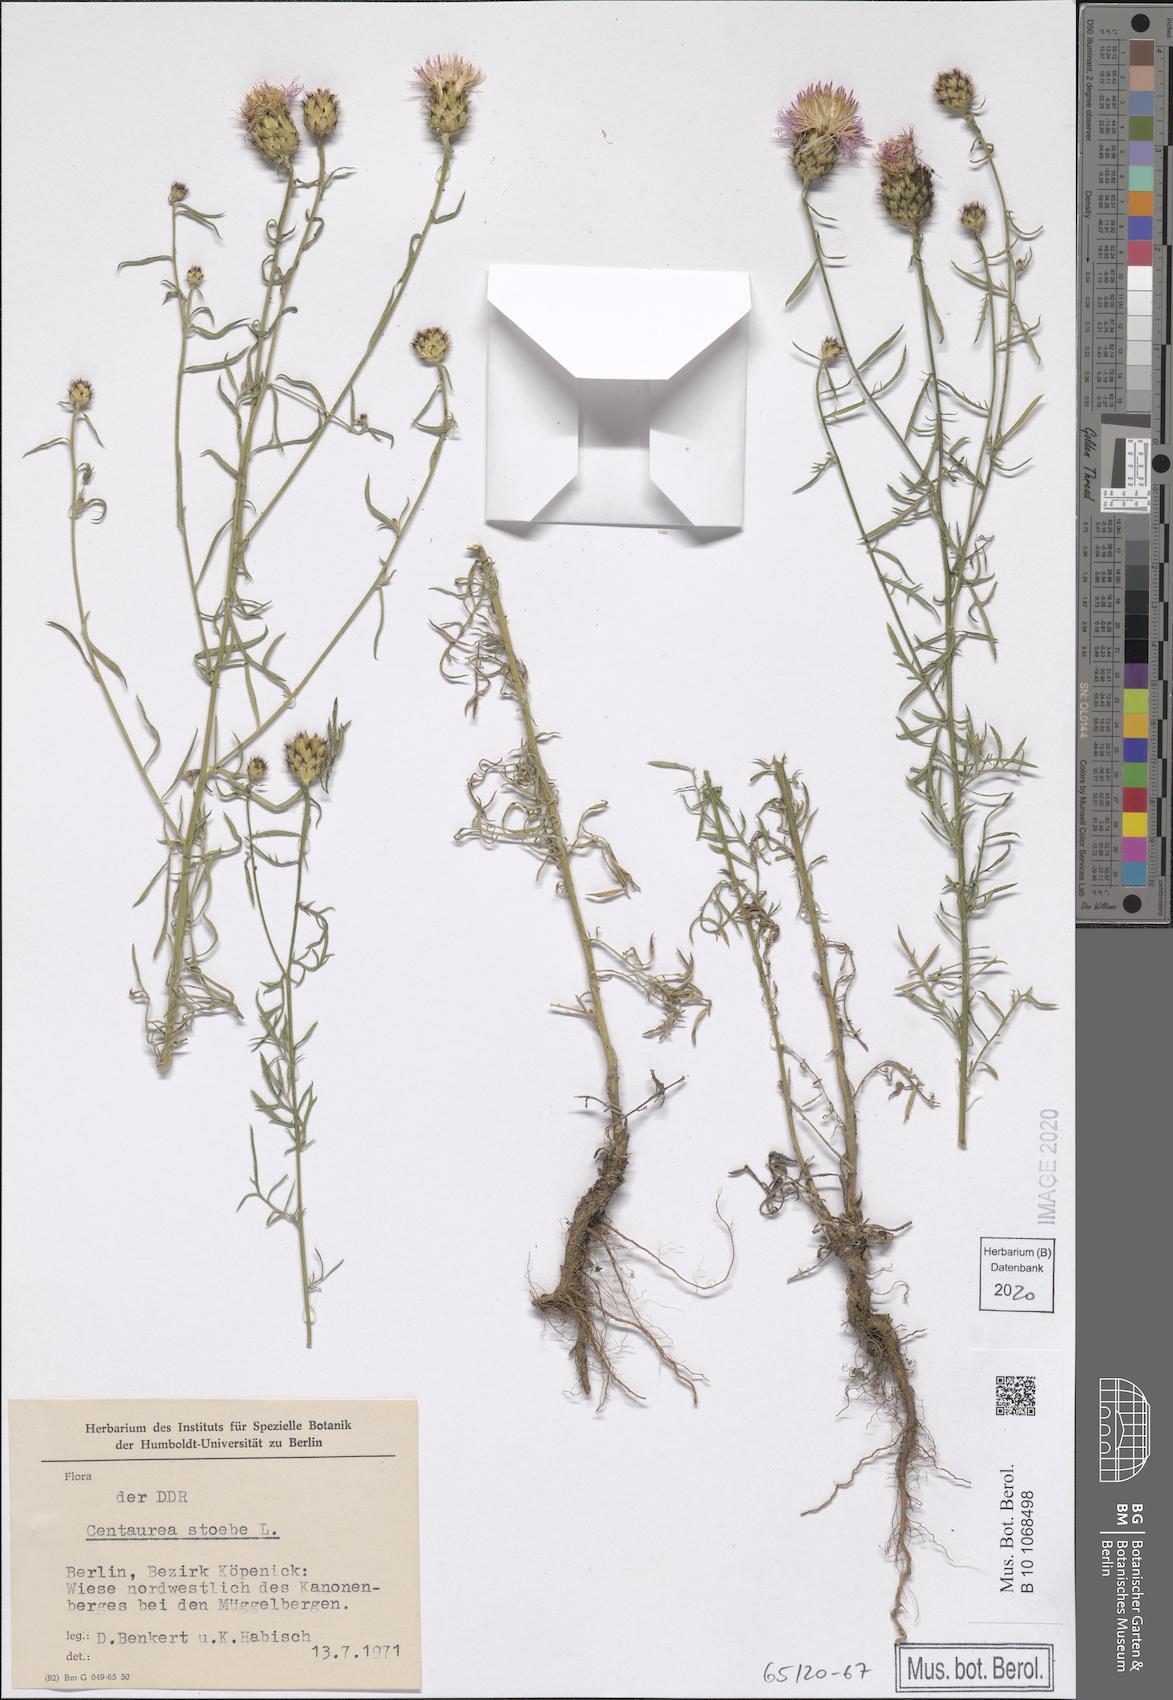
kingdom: Plantae
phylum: Tracheophyta
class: Magnoliopsida
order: Asterales
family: Asteraceae
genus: Centaurea
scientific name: Centaurea stoebe
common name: Spotted knapweed
